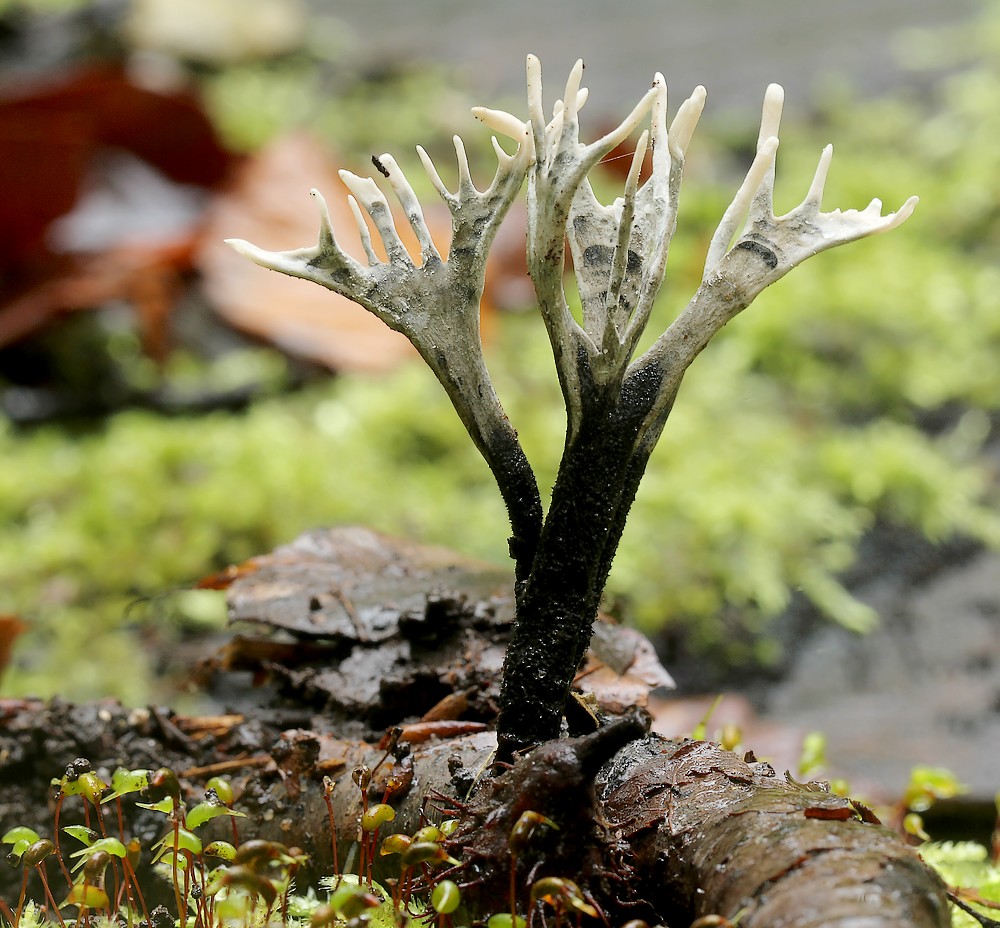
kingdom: Fungi
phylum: Ascomycota
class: Sordariomycetes
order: Xylariales
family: Xylariaceae
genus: Xylaria
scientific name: Xylaria hypoxylon
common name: grenet stødsvamp
